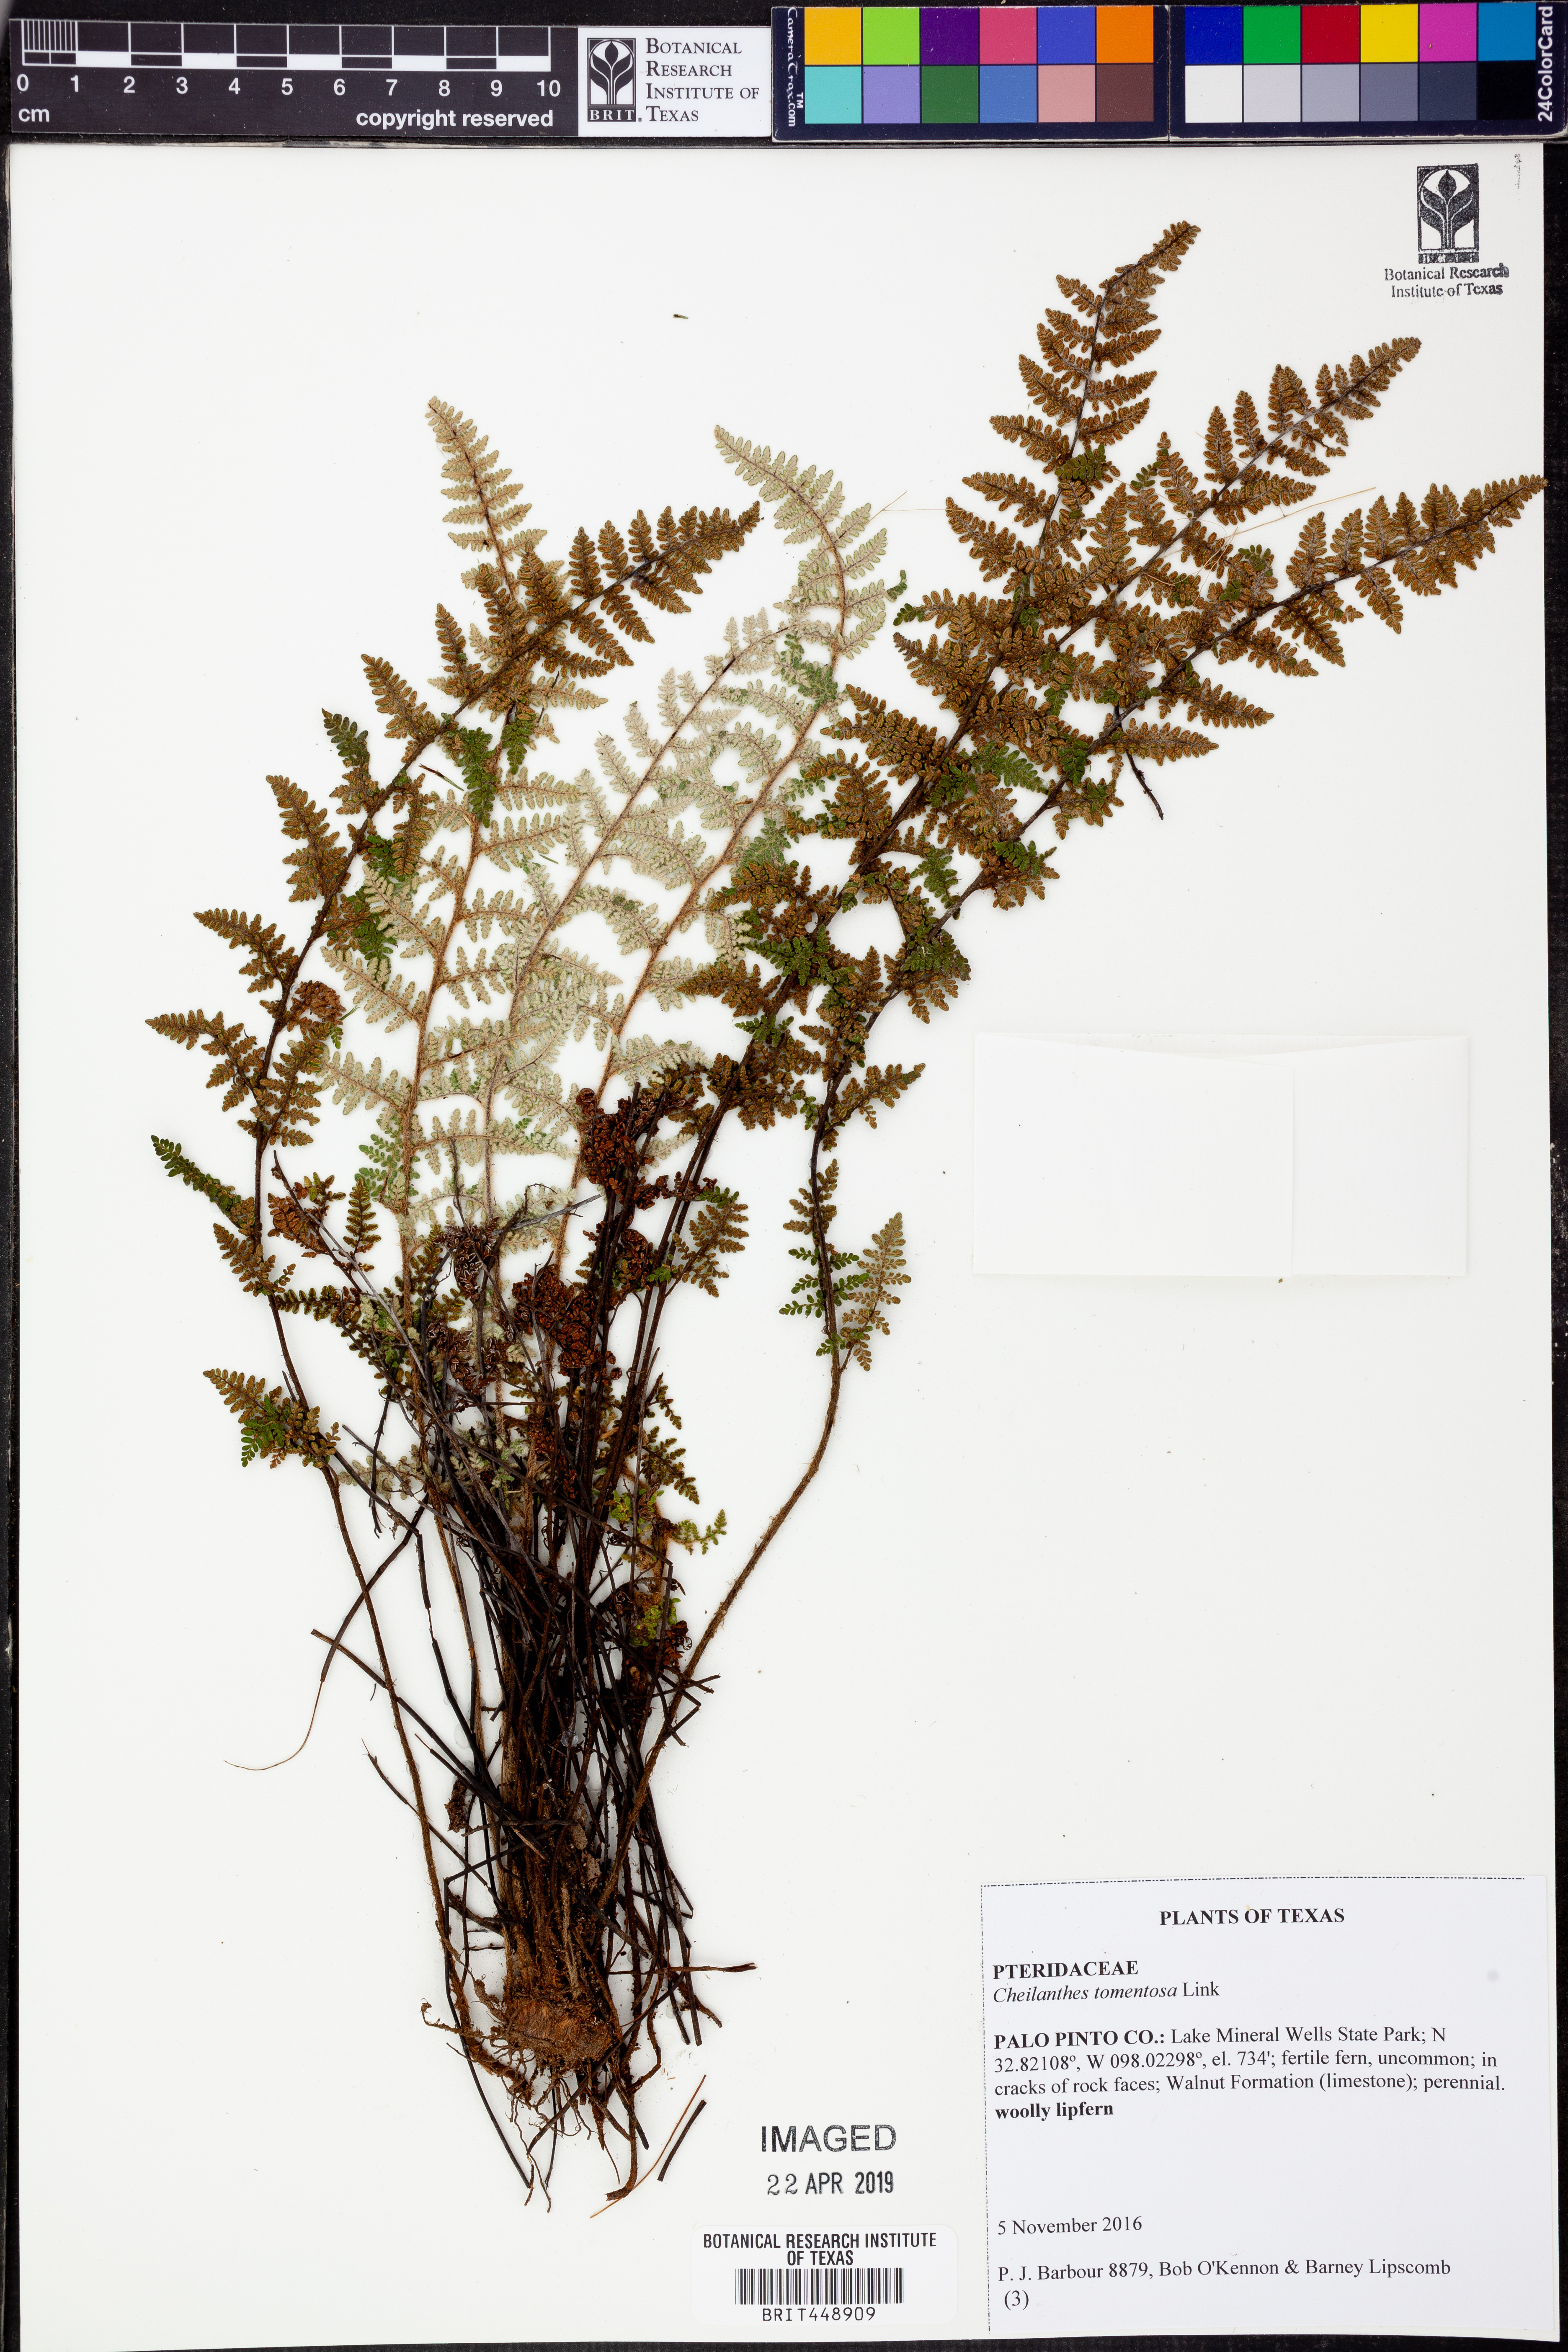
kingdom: Plantae
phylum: Tracheophyta
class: Polypodiopsida
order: Polypodiales
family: Pteridaceae
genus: Myriopteris
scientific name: Myriopteris tomentosa
